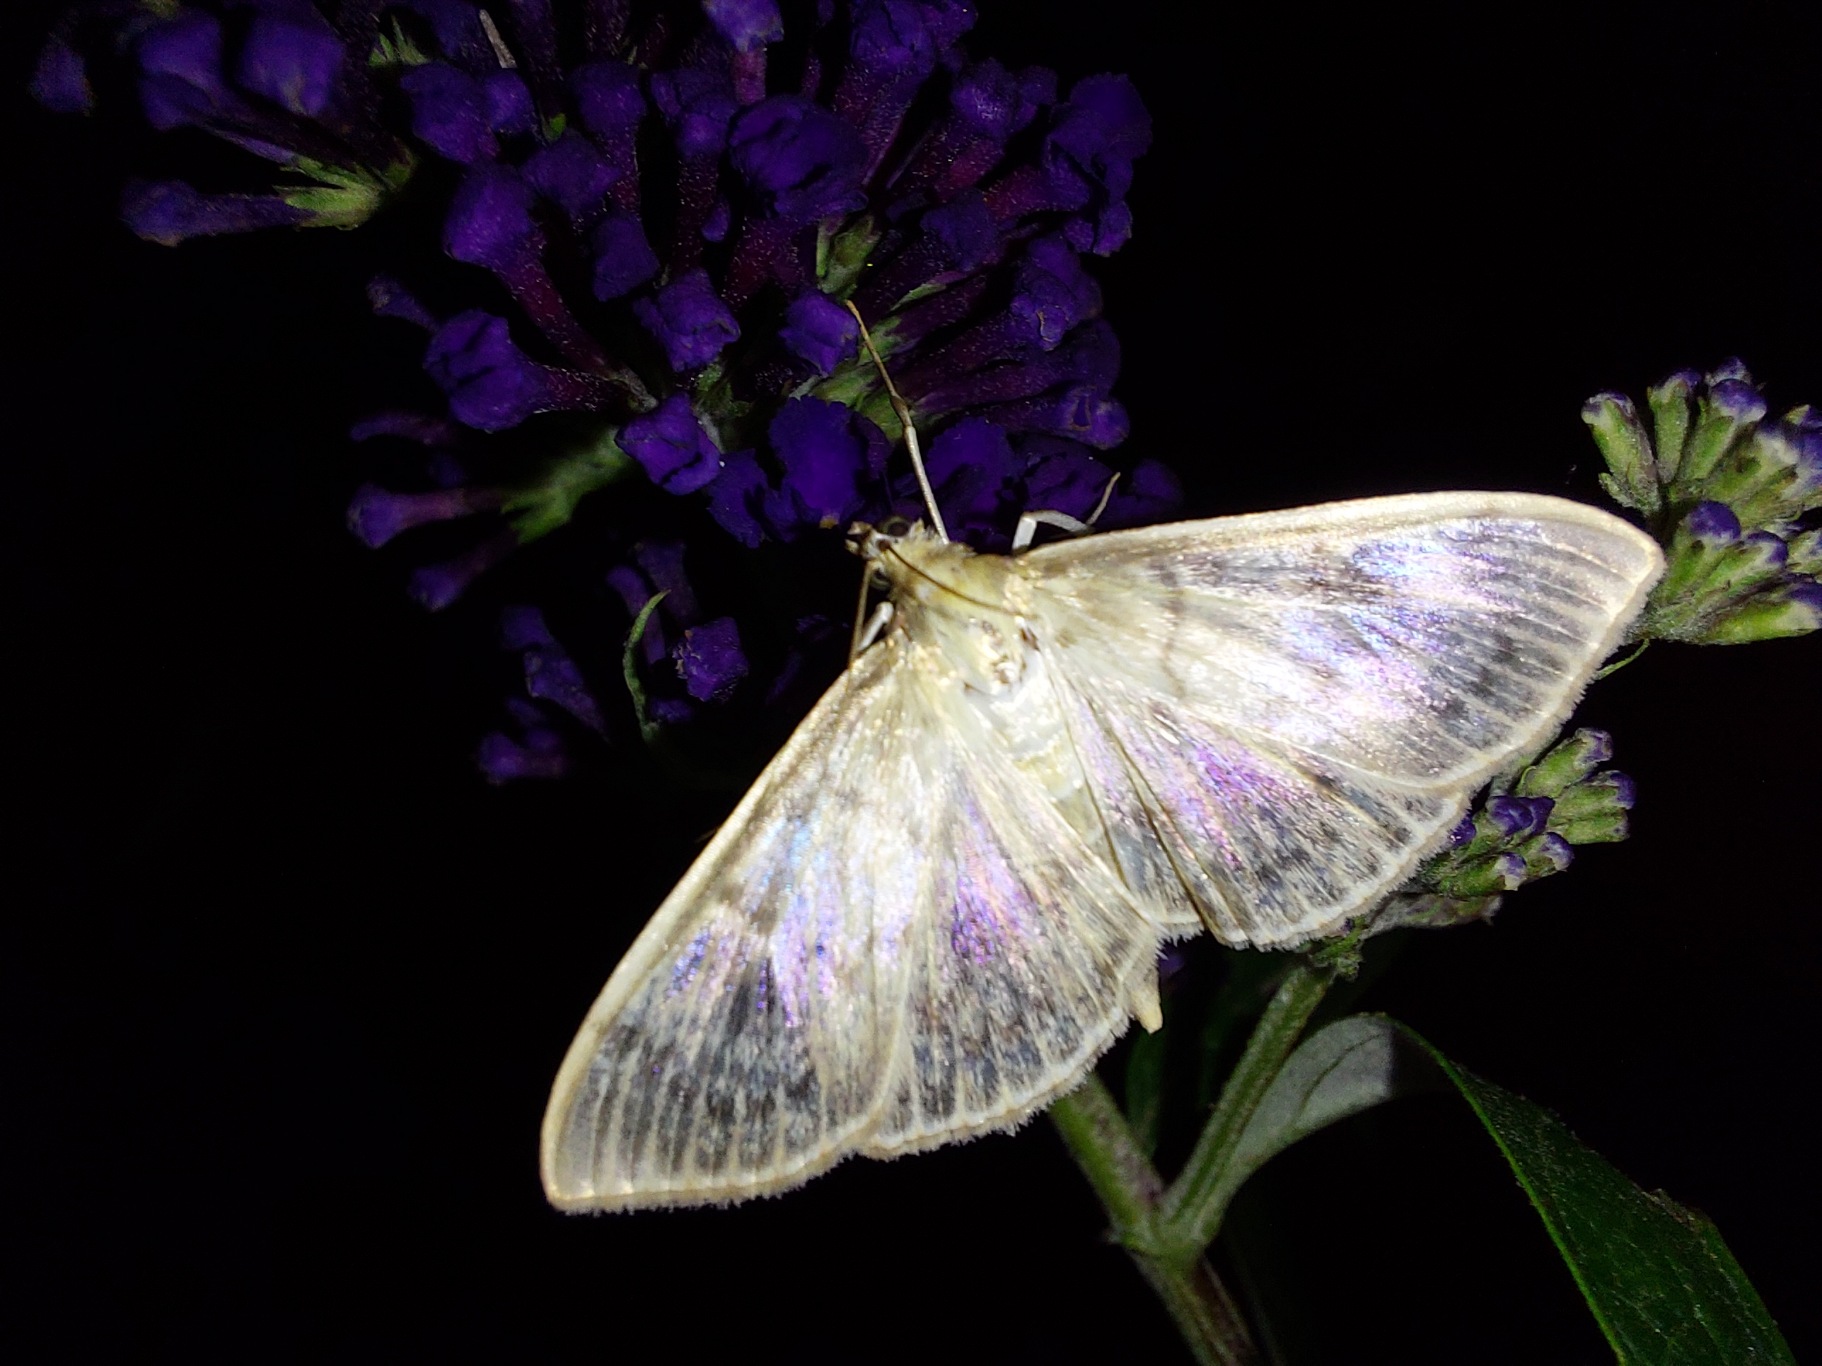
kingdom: Animalia
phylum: Arthropoda
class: Insecta
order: Lepidoptera
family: Crambidae
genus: Patania
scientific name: Patania ruralis
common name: Perlemorshalvmøl
